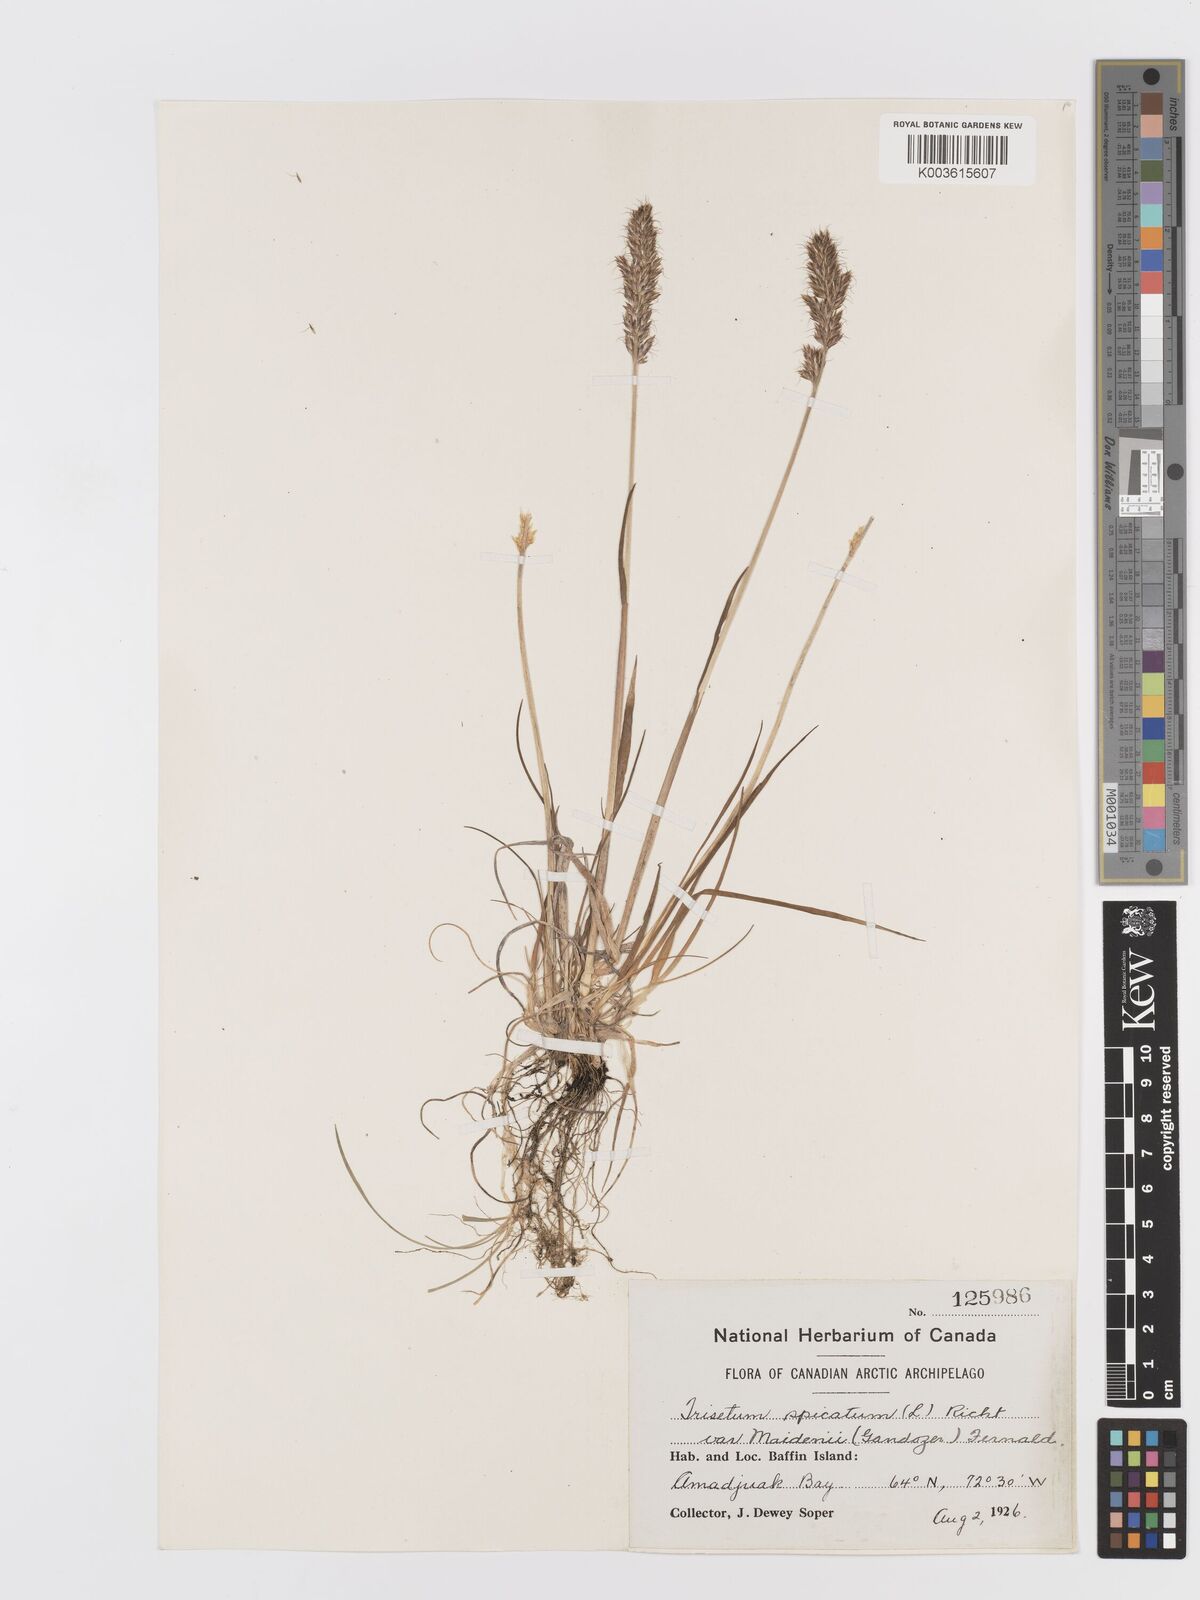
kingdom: Plantae
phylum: Tracheophyta
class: Liliopsida
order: Poales
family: Poaceae
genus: Koeleria
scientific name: Koeleria spicata
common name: Mountain trisetum
